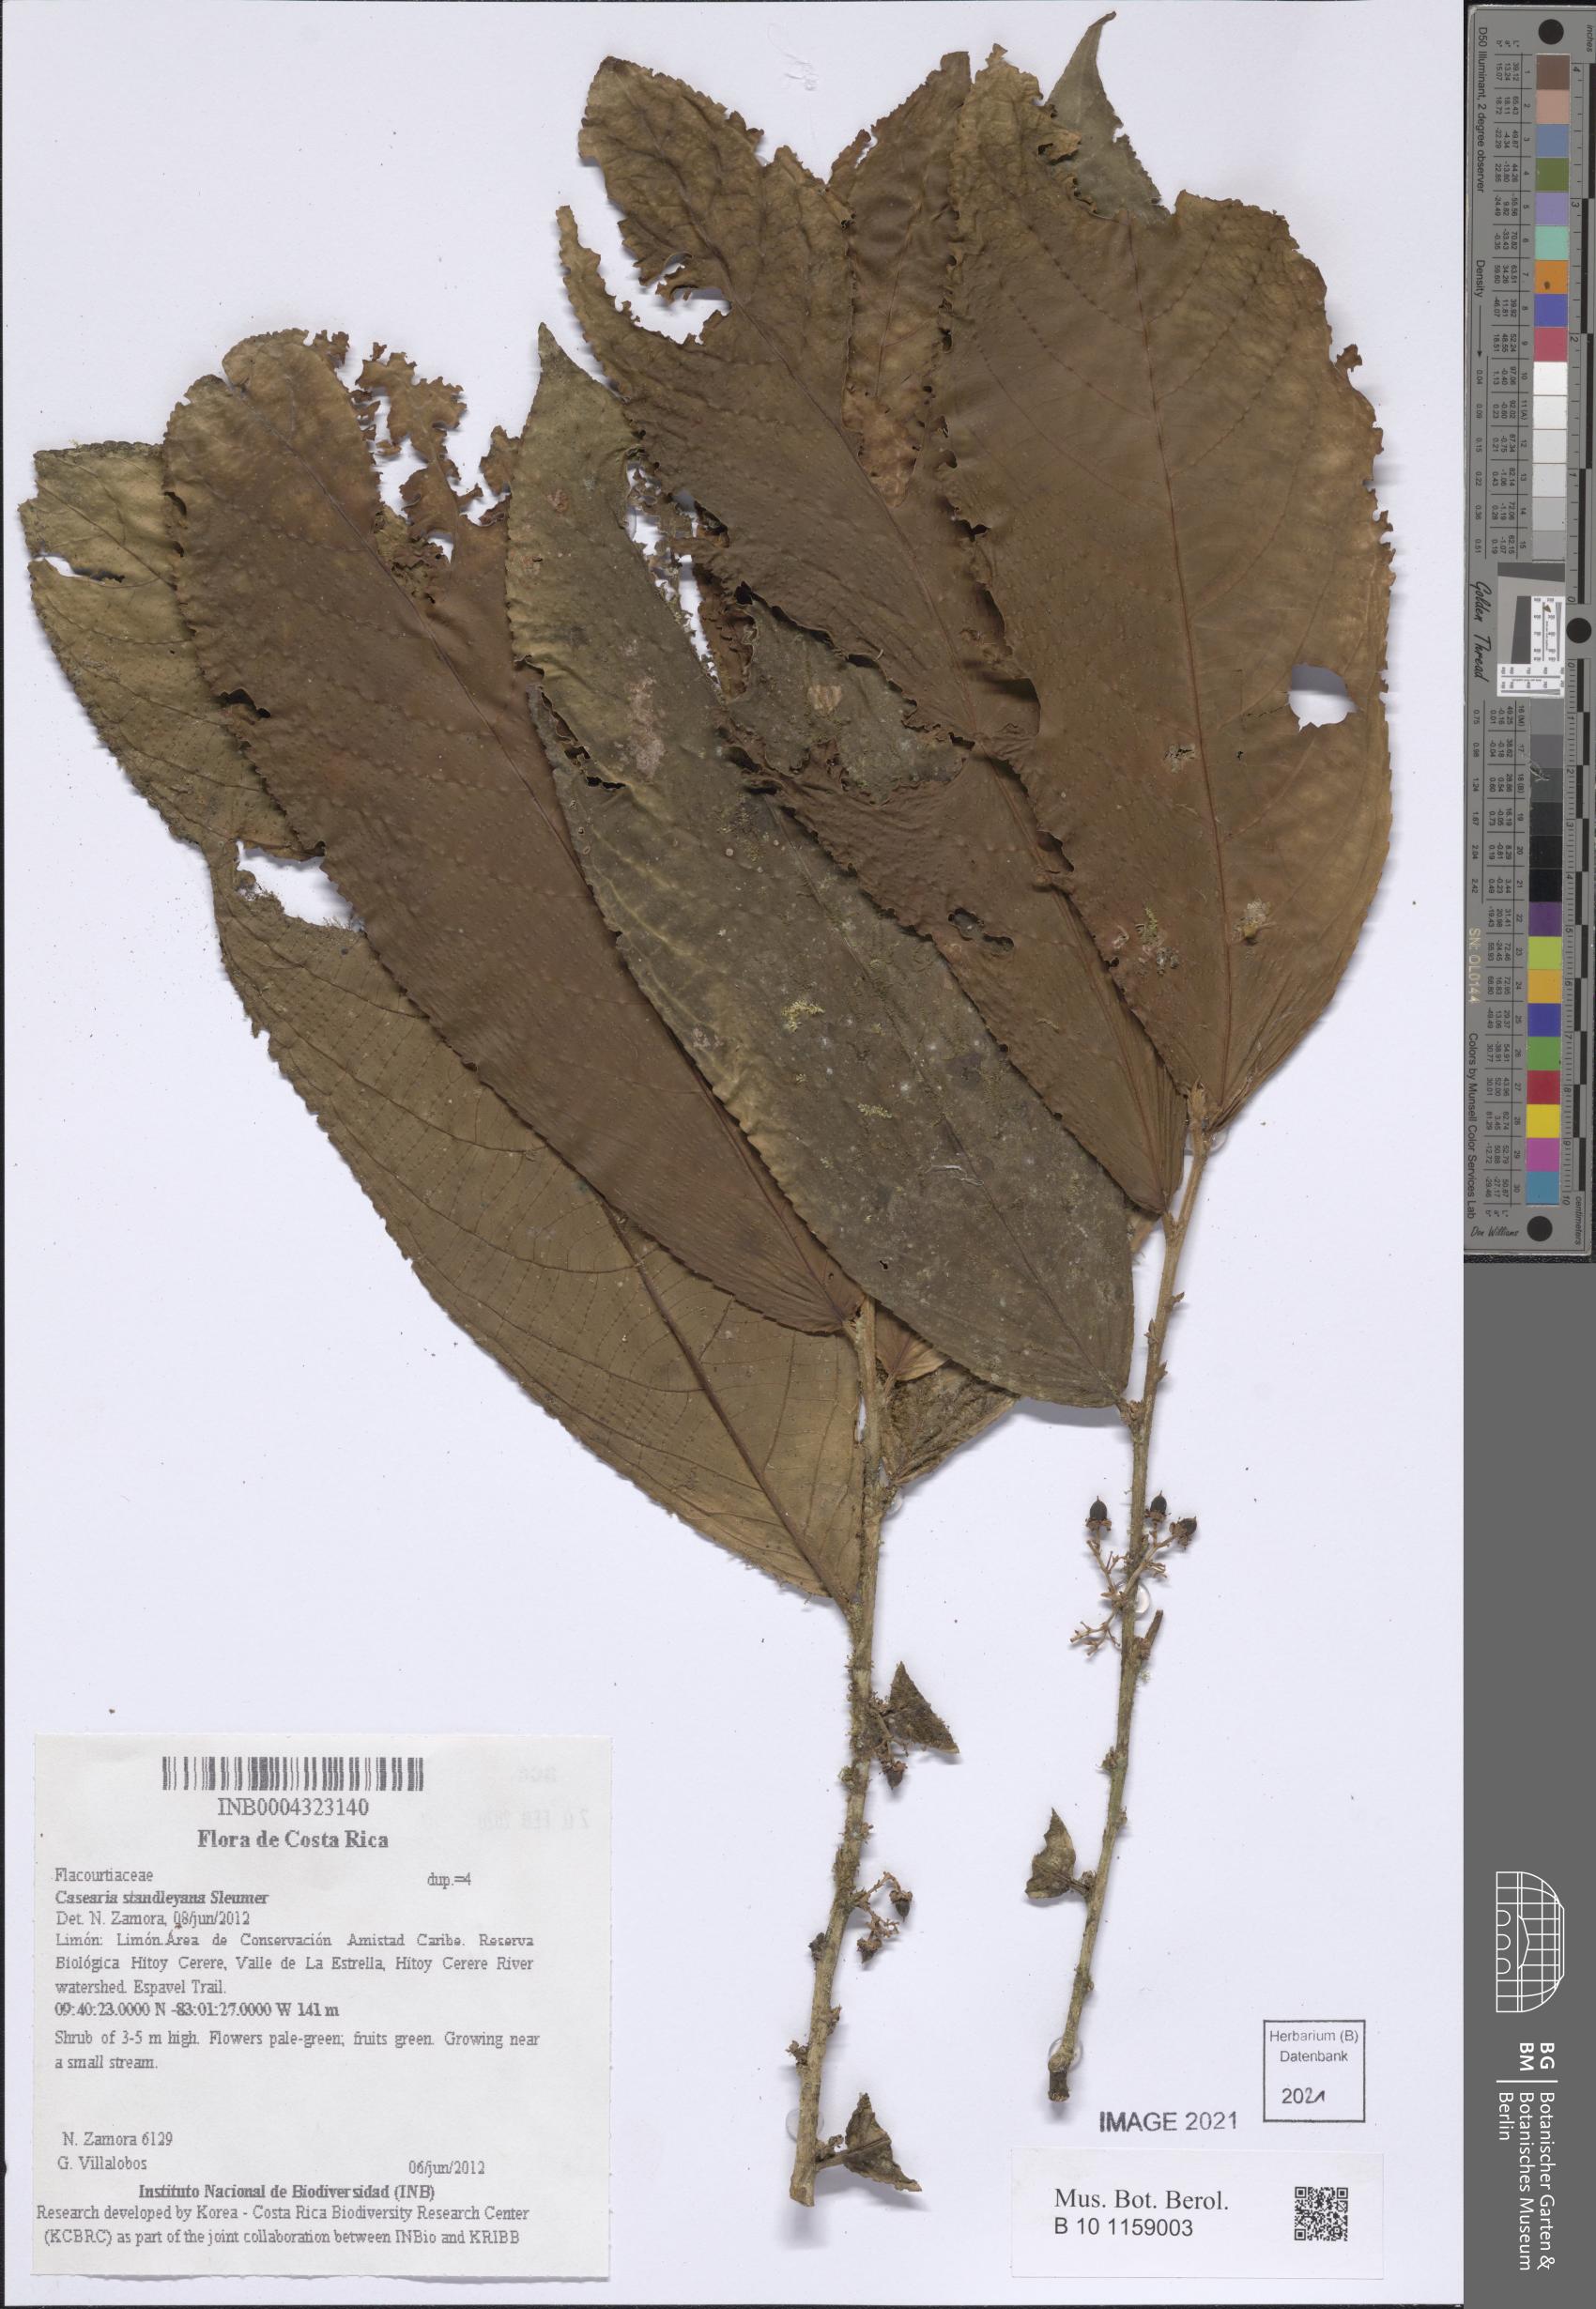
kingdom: Plantae
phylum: Tracheophyta
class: Magnoliopsida
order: Malpighiales
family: Salicaceae
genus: Casearia
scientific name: Casearia
